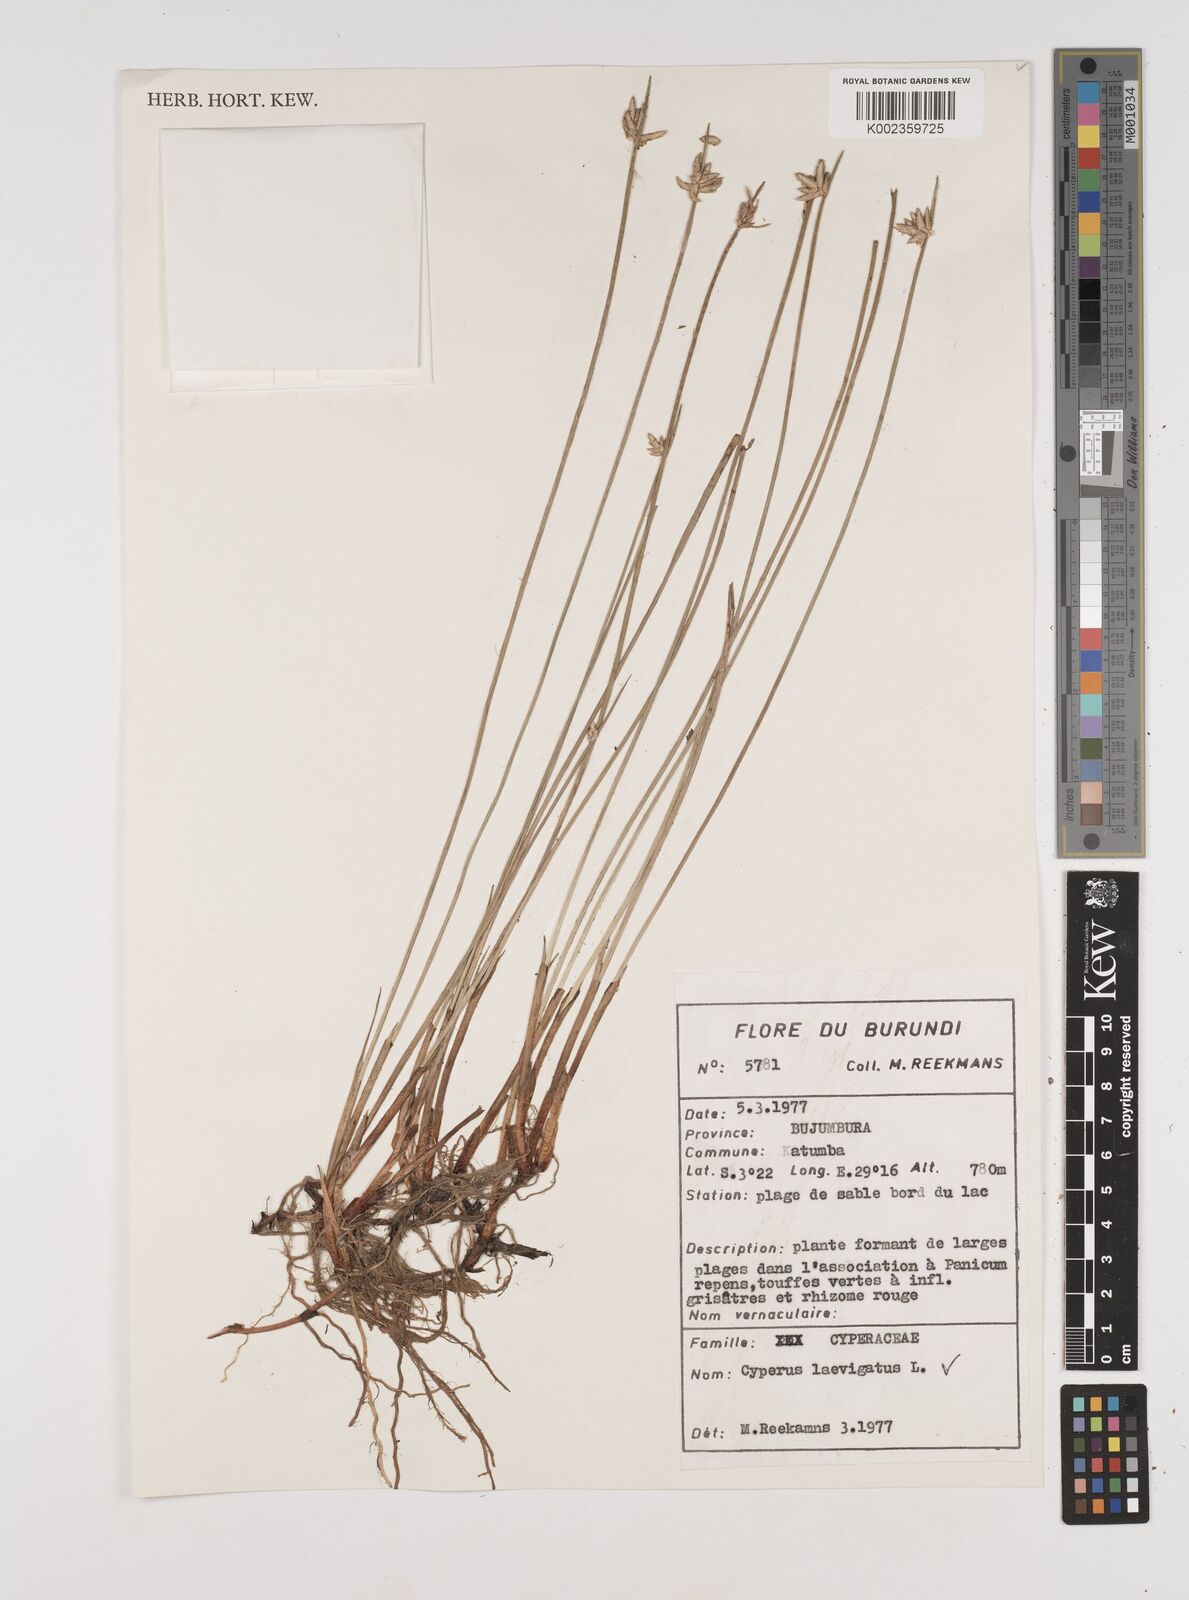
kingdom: Plantae
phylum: Tracheophyta
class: Liliopsida
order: Poales
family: Cyperaceae
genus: Cyperus
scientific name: Cyperus laevigatus
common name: Smooth flat sedge
